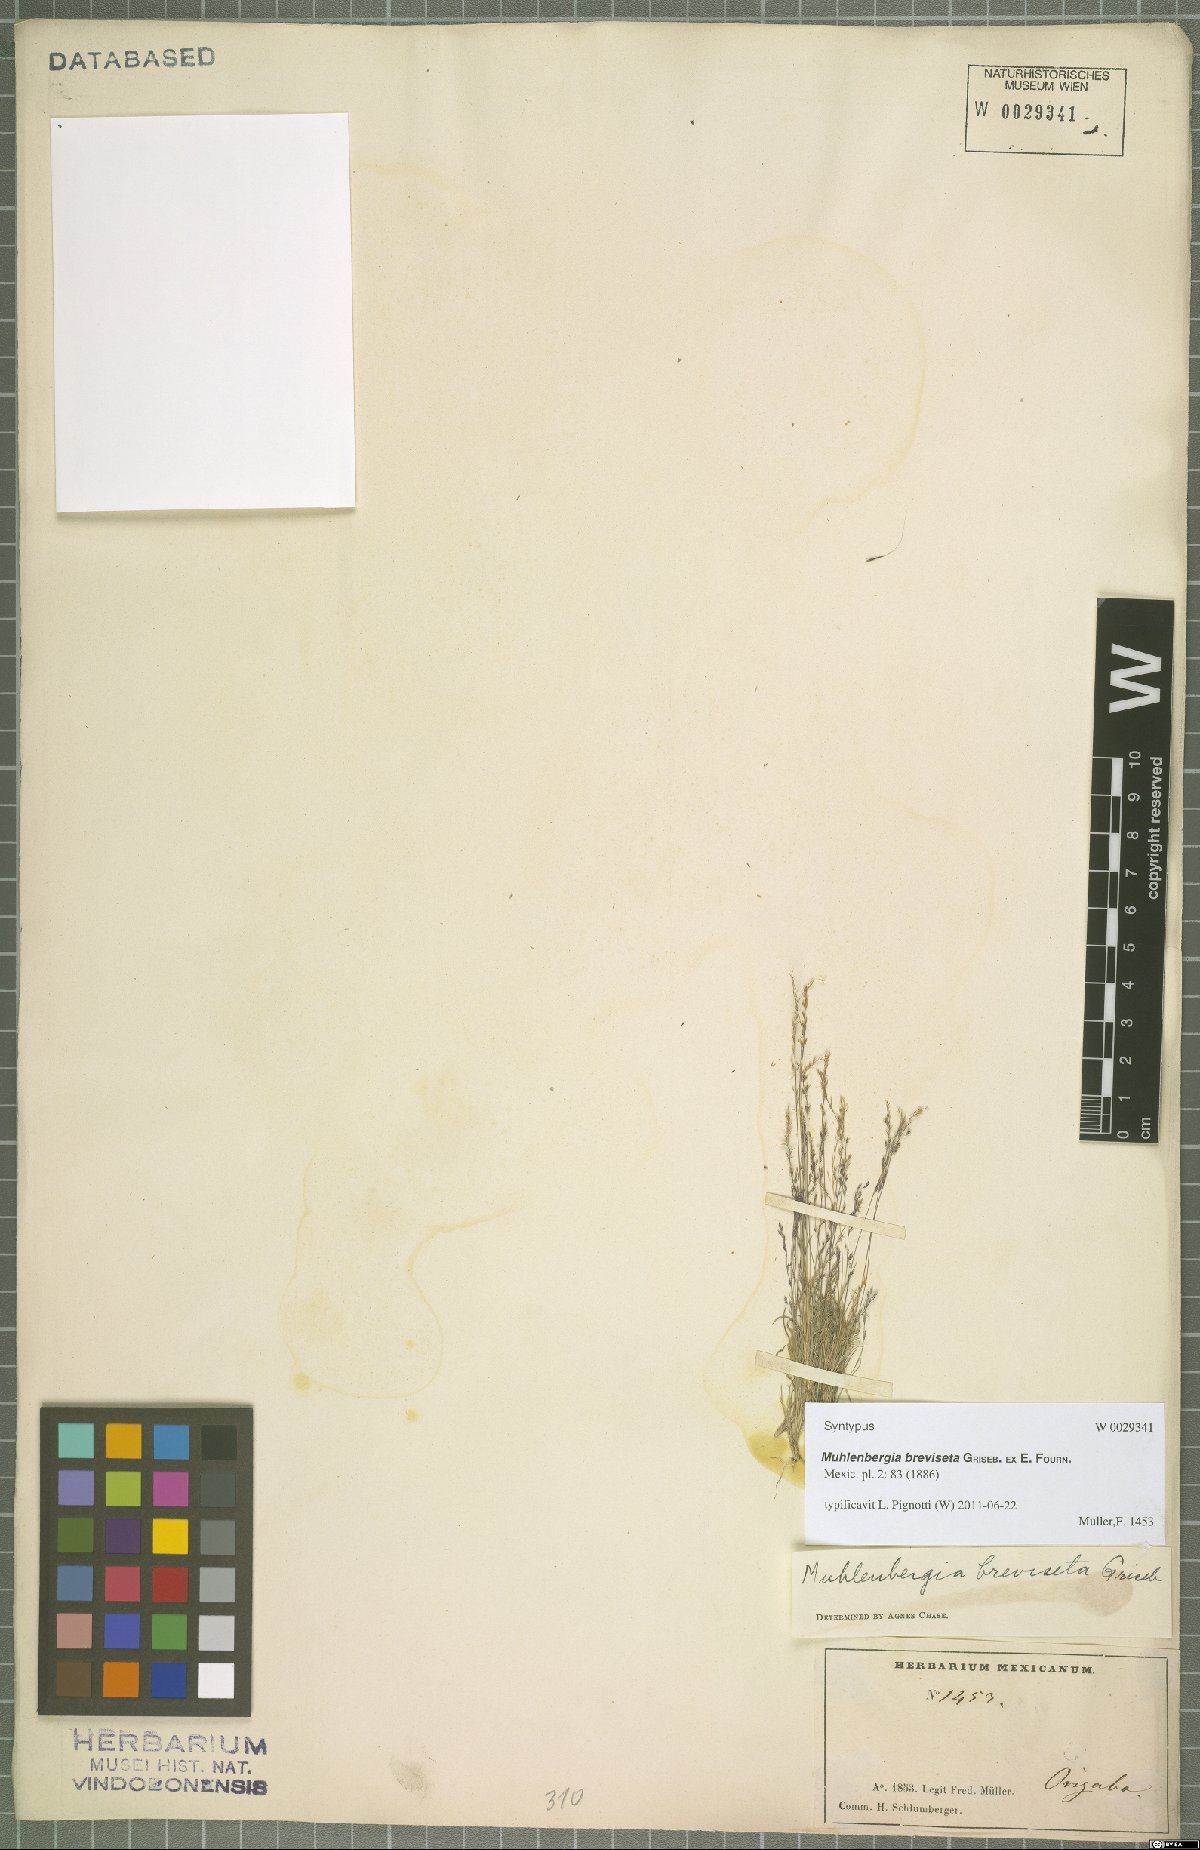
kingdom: Plantae
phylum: Tracheophyta
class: Liliopsida
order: Poales
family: Poaceae
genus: Muhlenbergia
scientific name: Muhlenbergia breviseta
